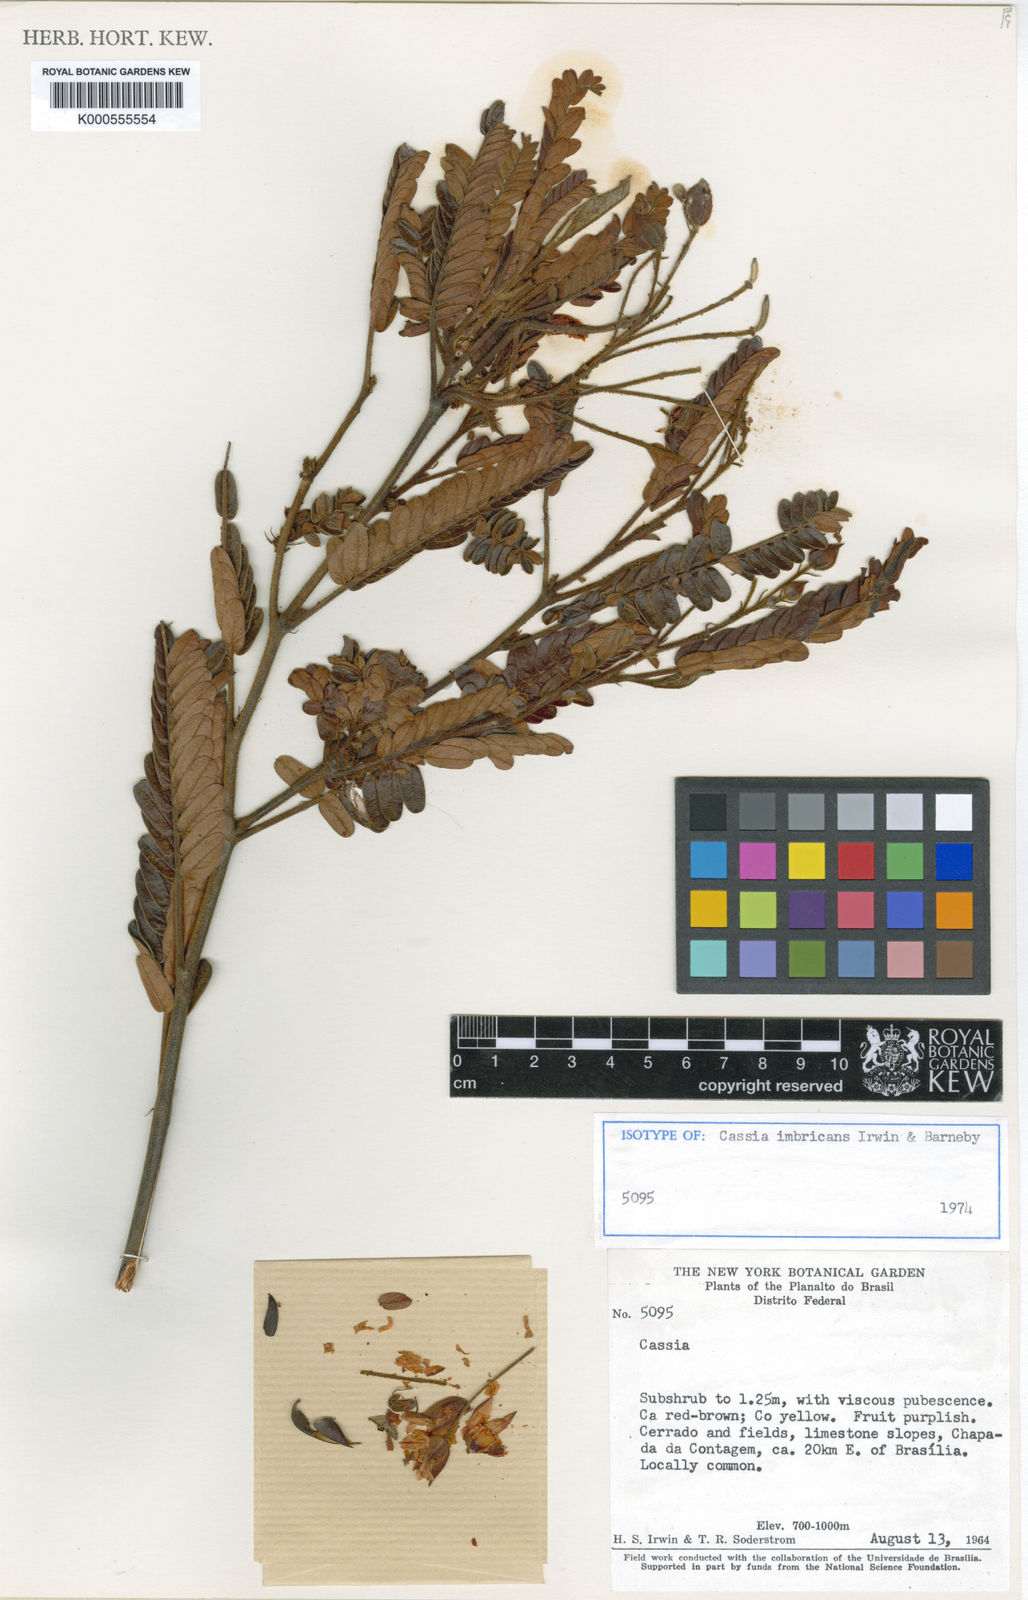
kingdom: Plantae
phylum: Tracheophyta
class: Magnoliopsida
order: Fabales
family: Fabaceae
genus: Chamaecrista
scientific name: Chamaecrista imbricans
